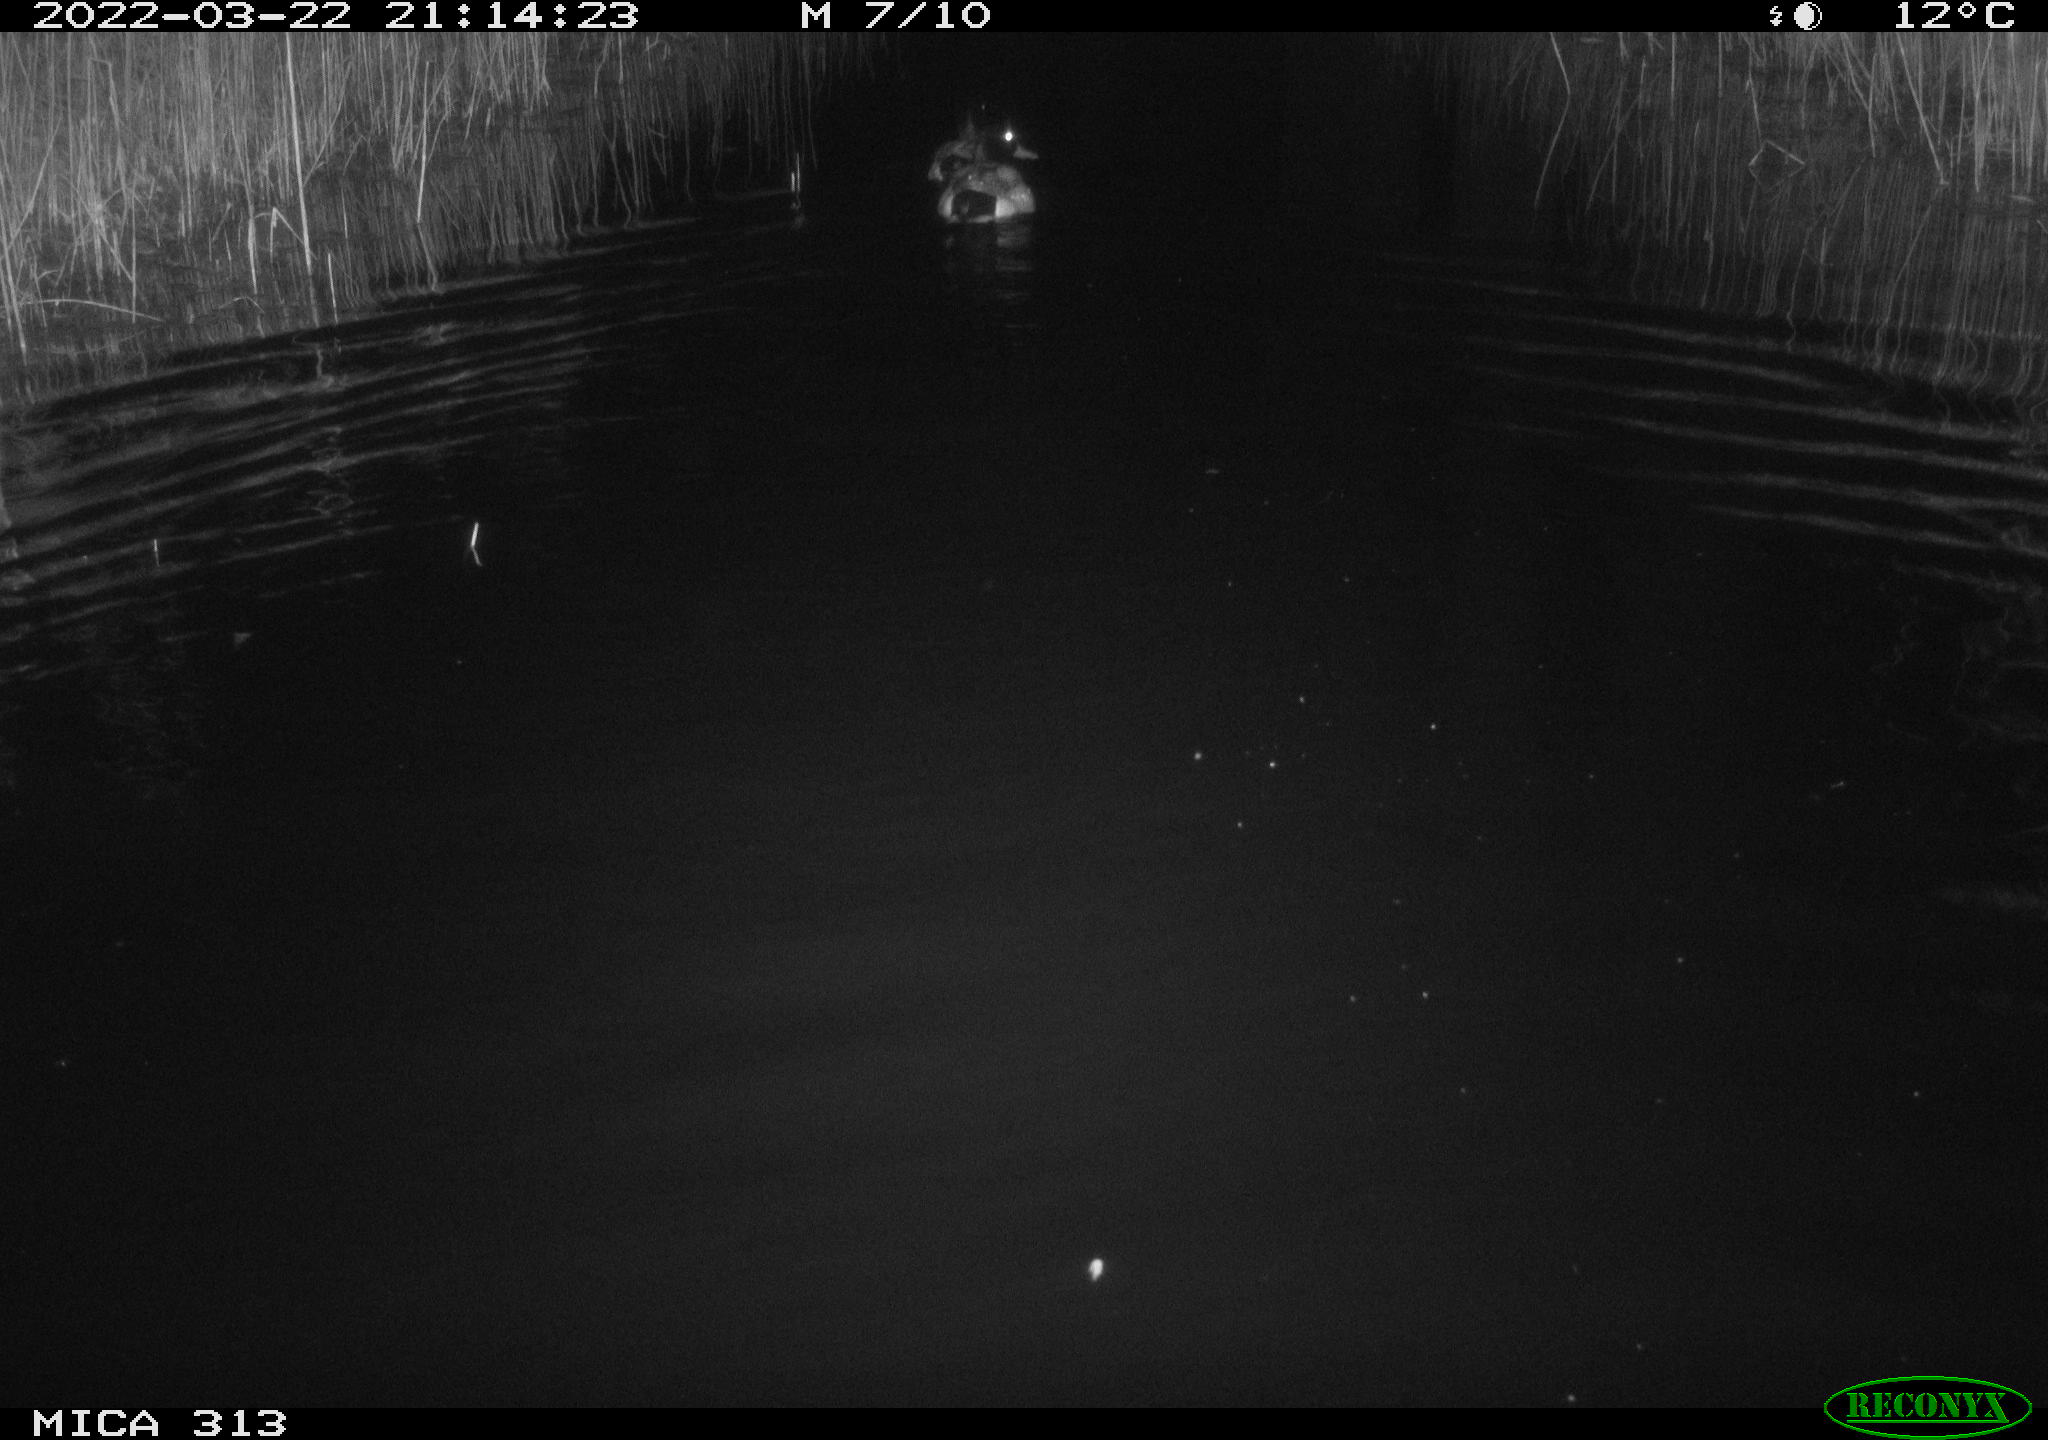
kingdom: Animalia
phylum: Chordata
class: Aves
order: Anseriformes
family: Anatidae
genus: Anas
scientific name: Anas platyrhynchos
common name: Mallard
